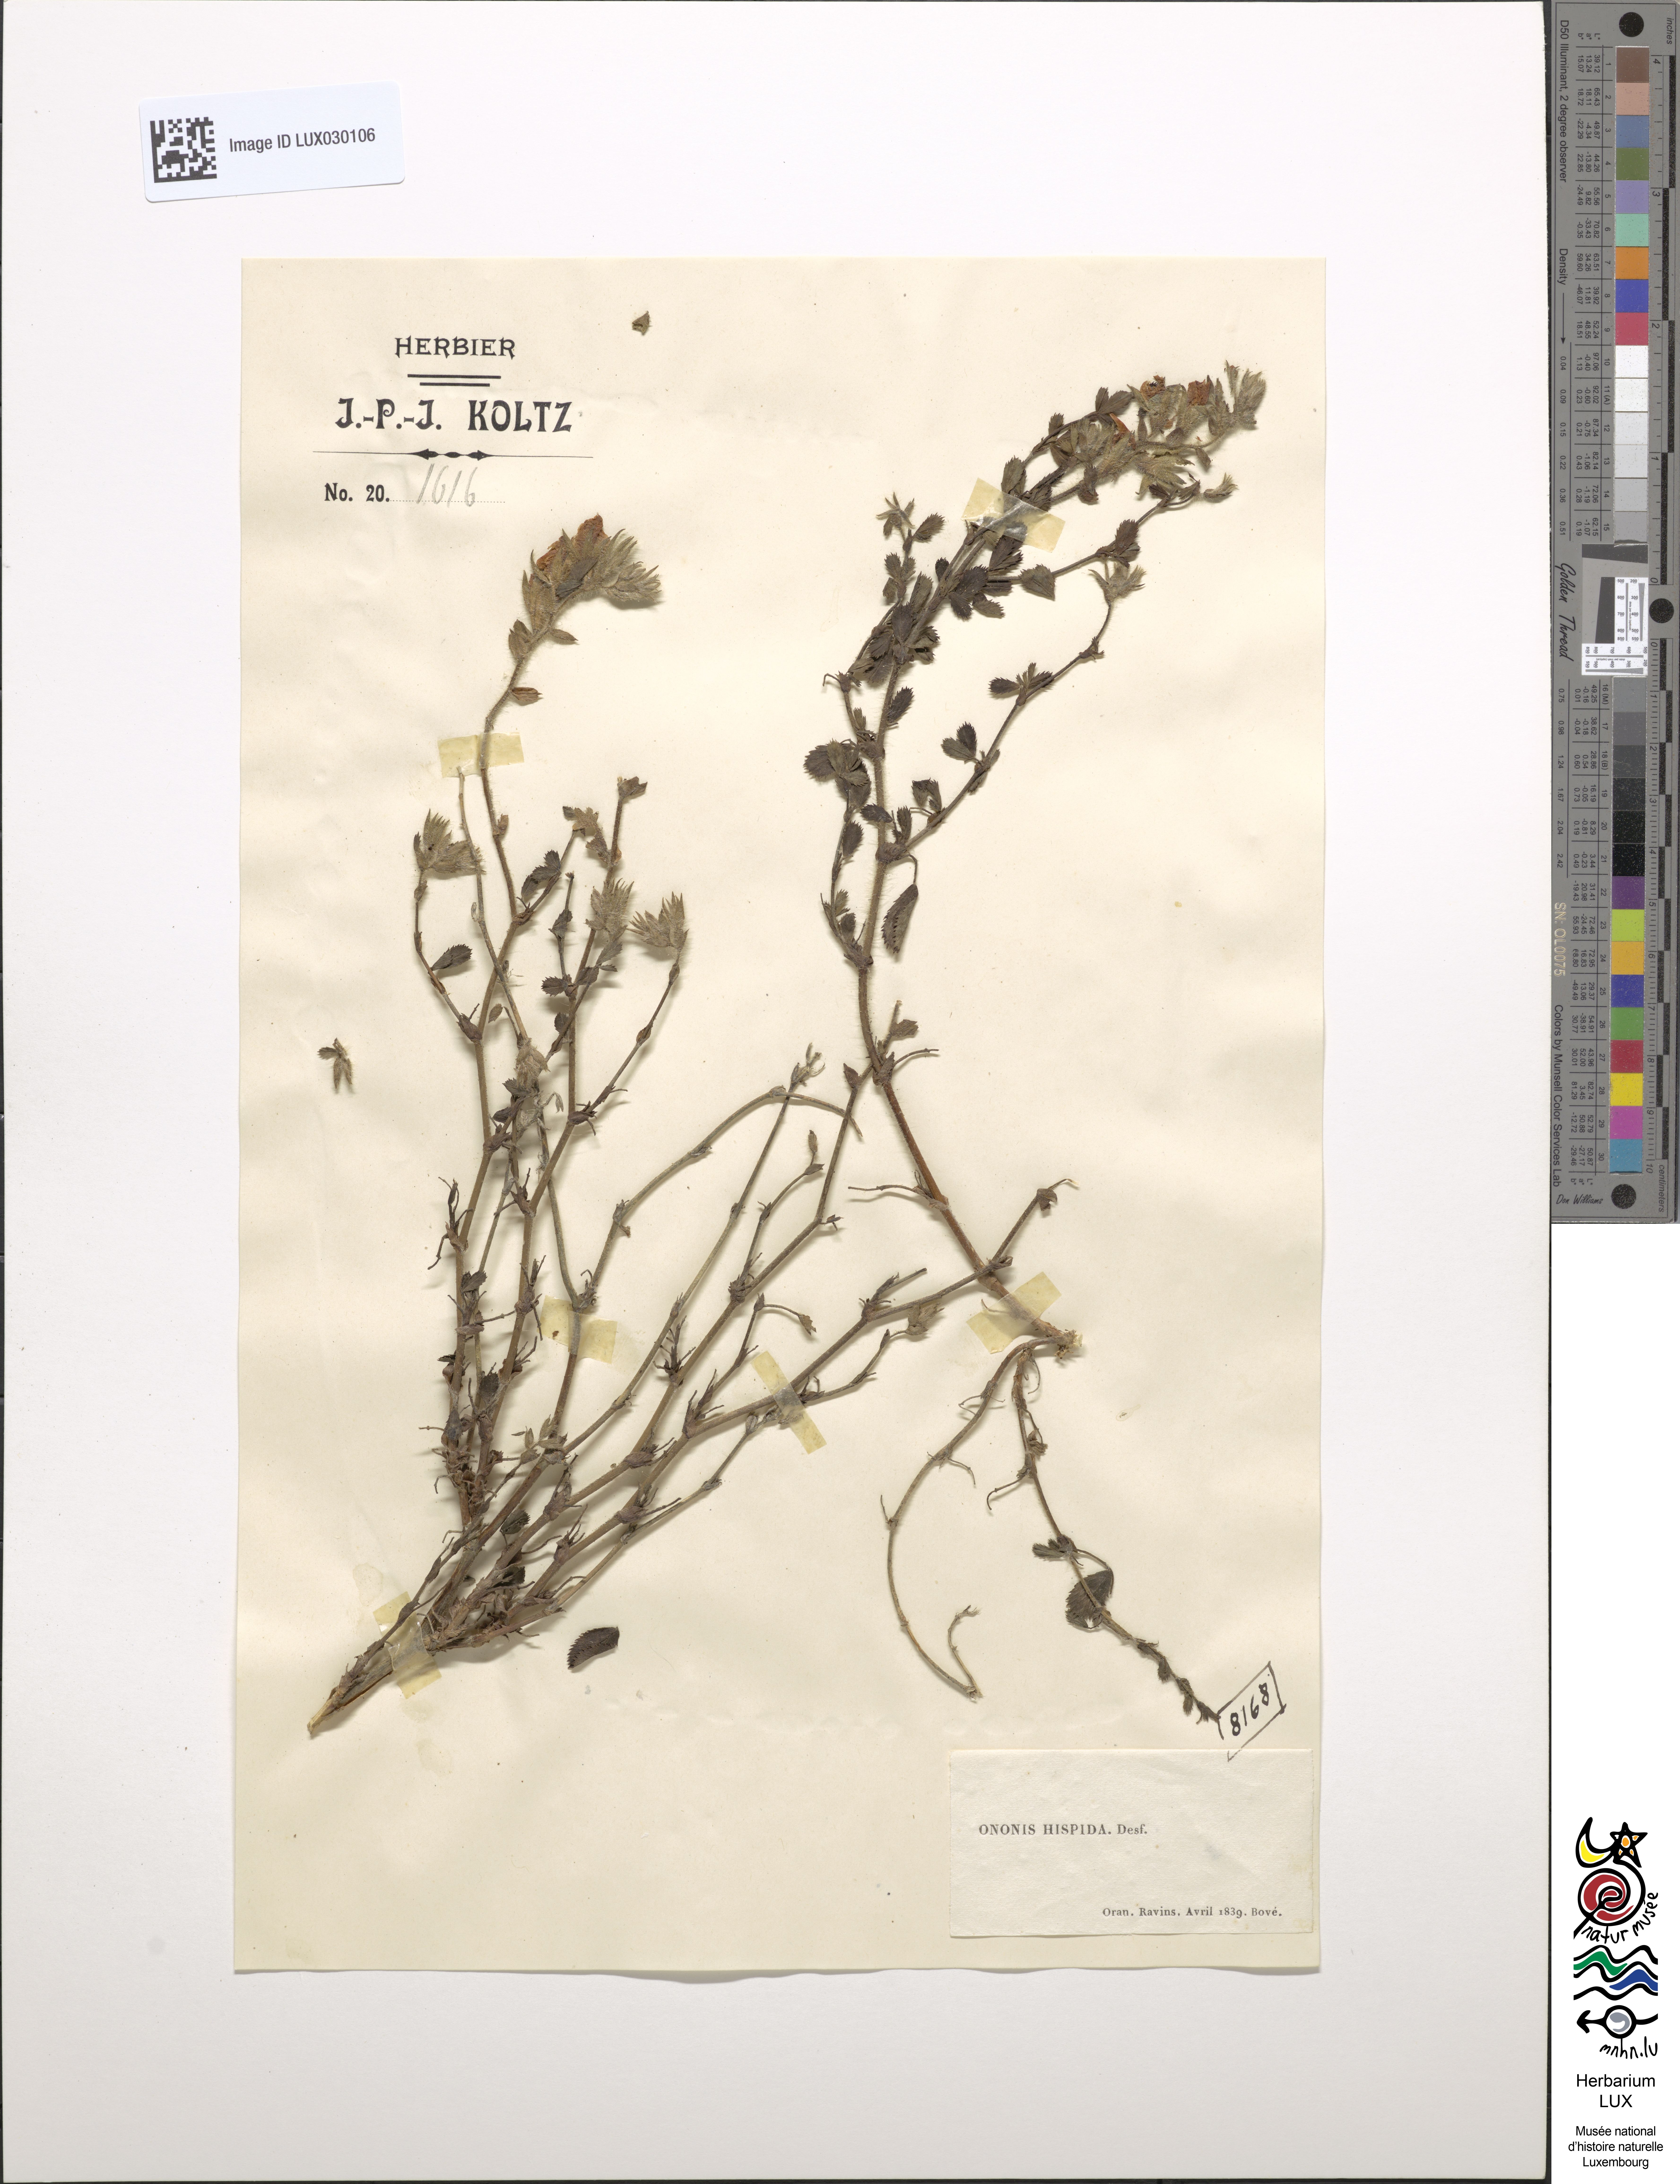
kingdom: Plantae
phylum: Tracheophyta
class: Magnoliopsida
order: Fabales
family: Fabaceae
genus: Ononis
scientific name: Ononis hispida
